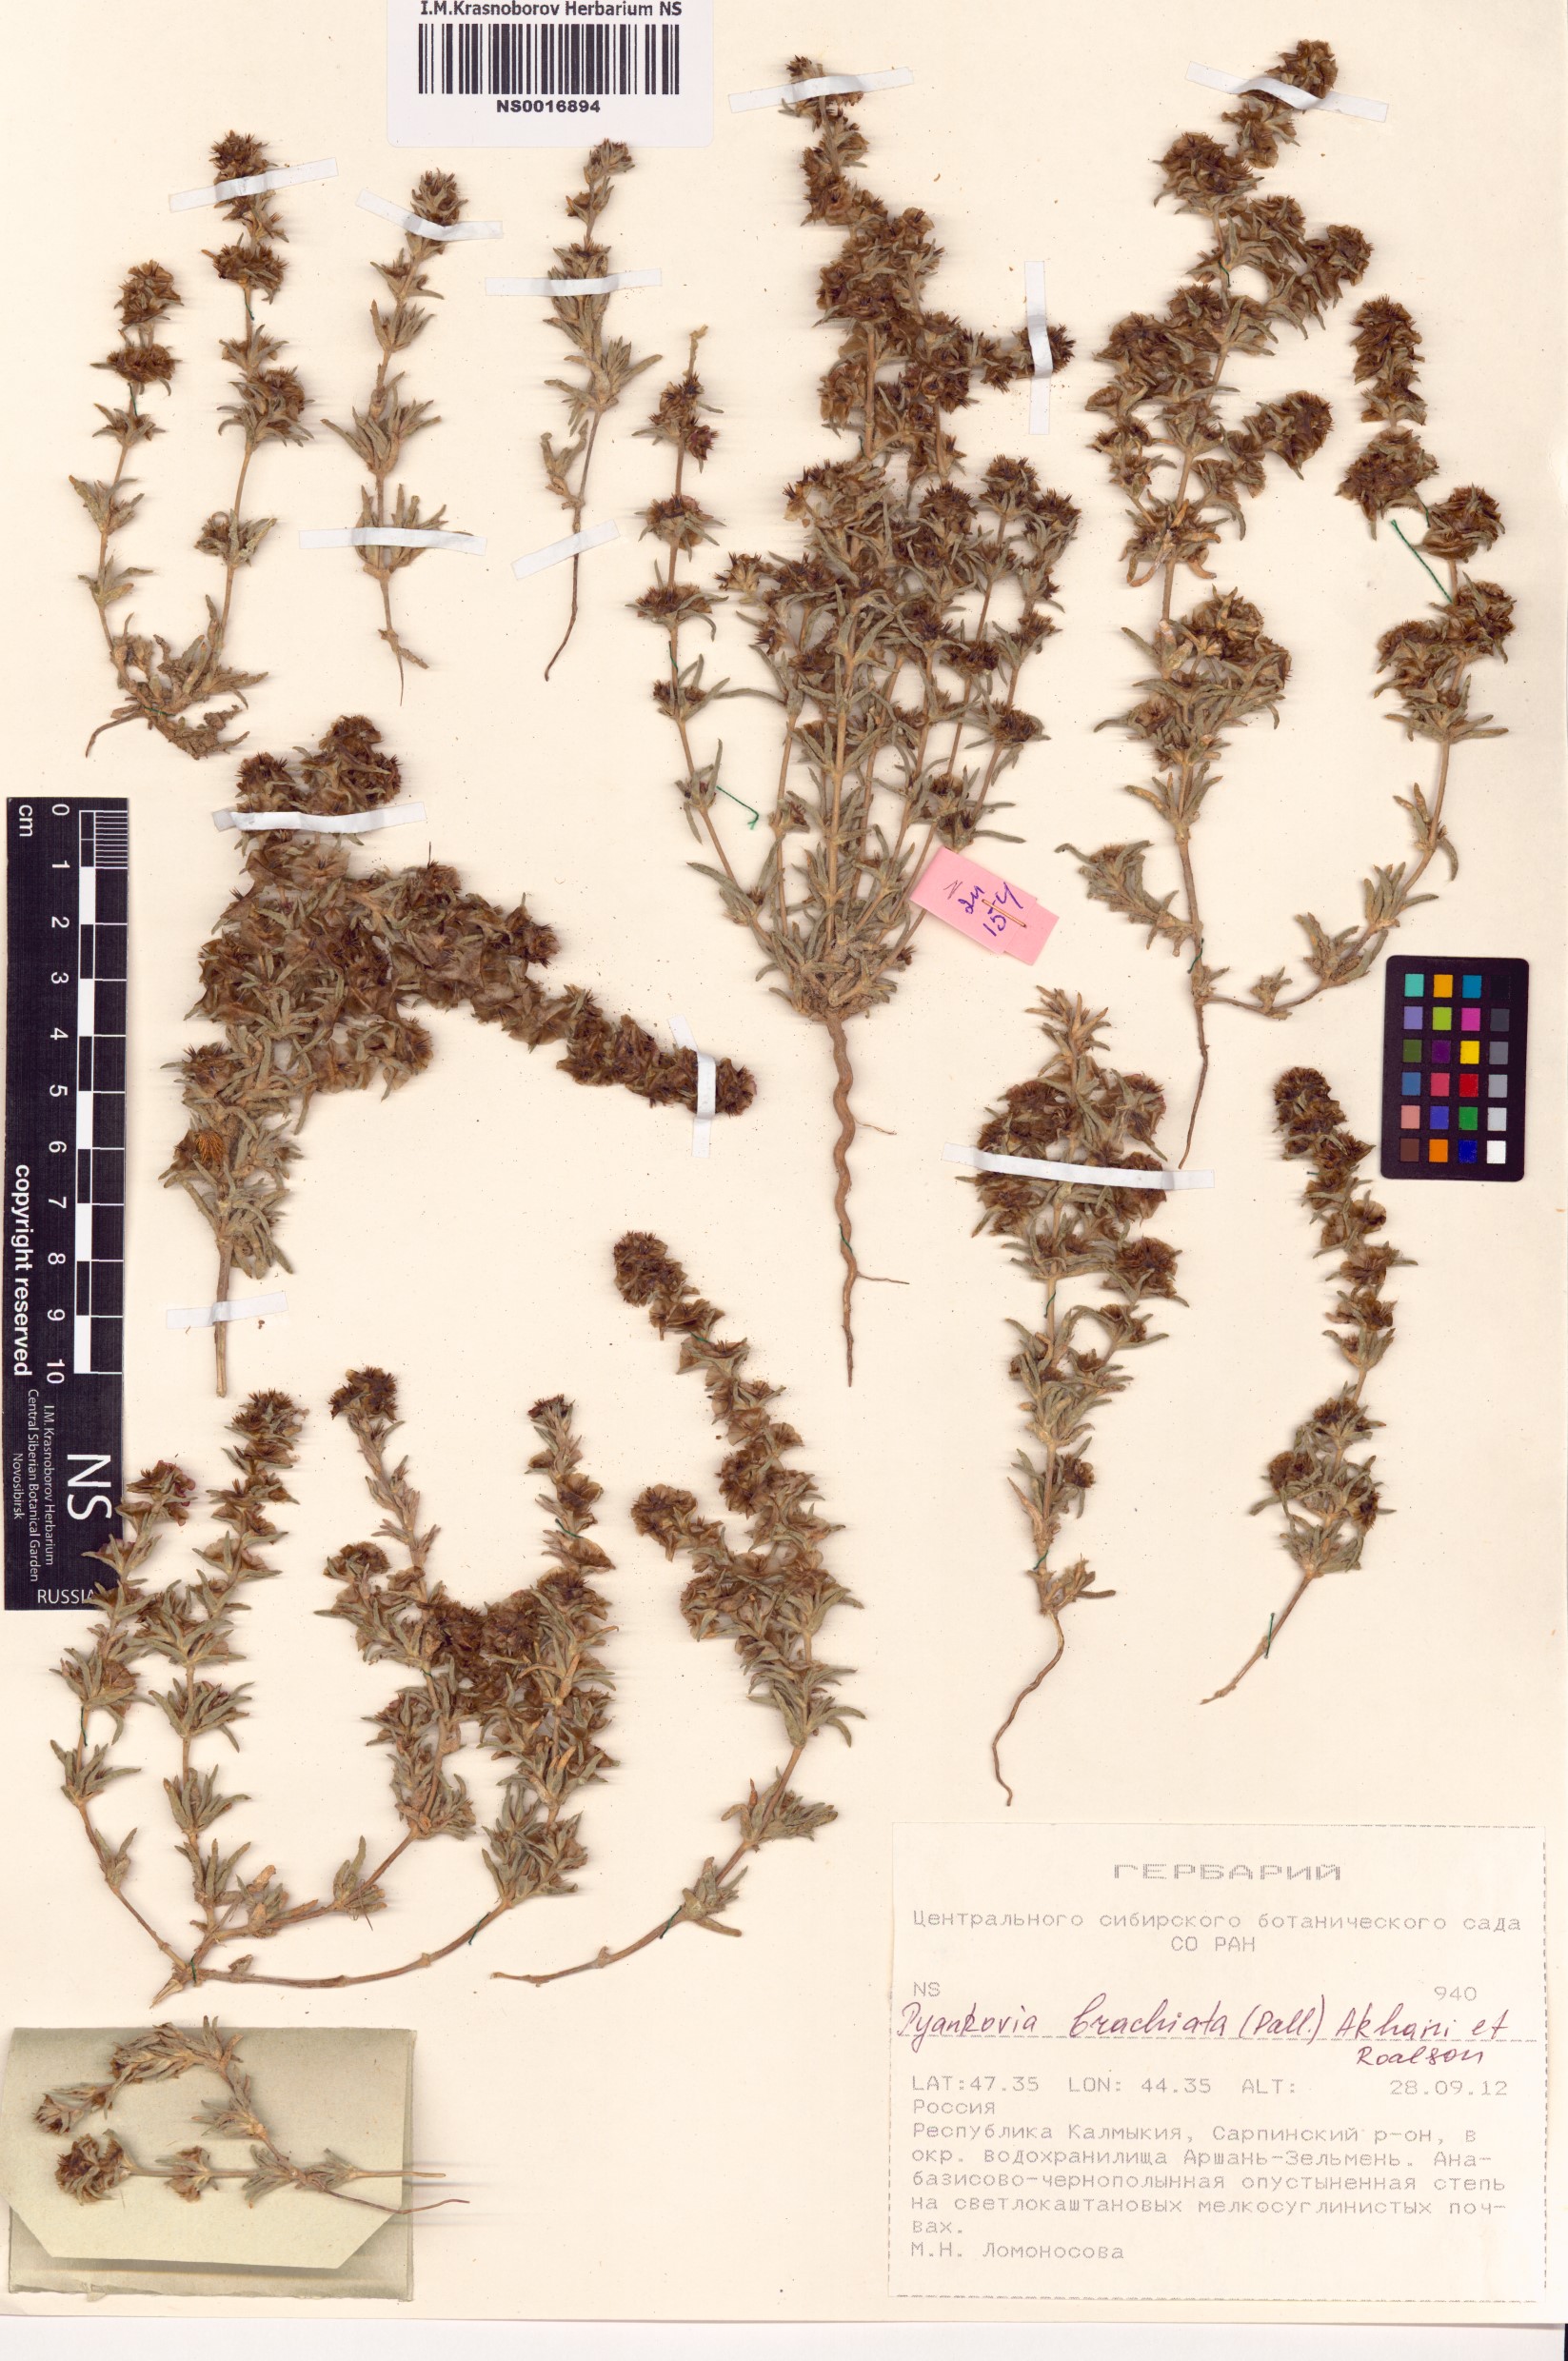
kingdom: Plantae
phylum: Tracheophyta
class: Magnoliopsida
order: Caryophyllales
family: Amaranthaceae
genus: Pyankovia
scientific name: Pyankovia brachiata
